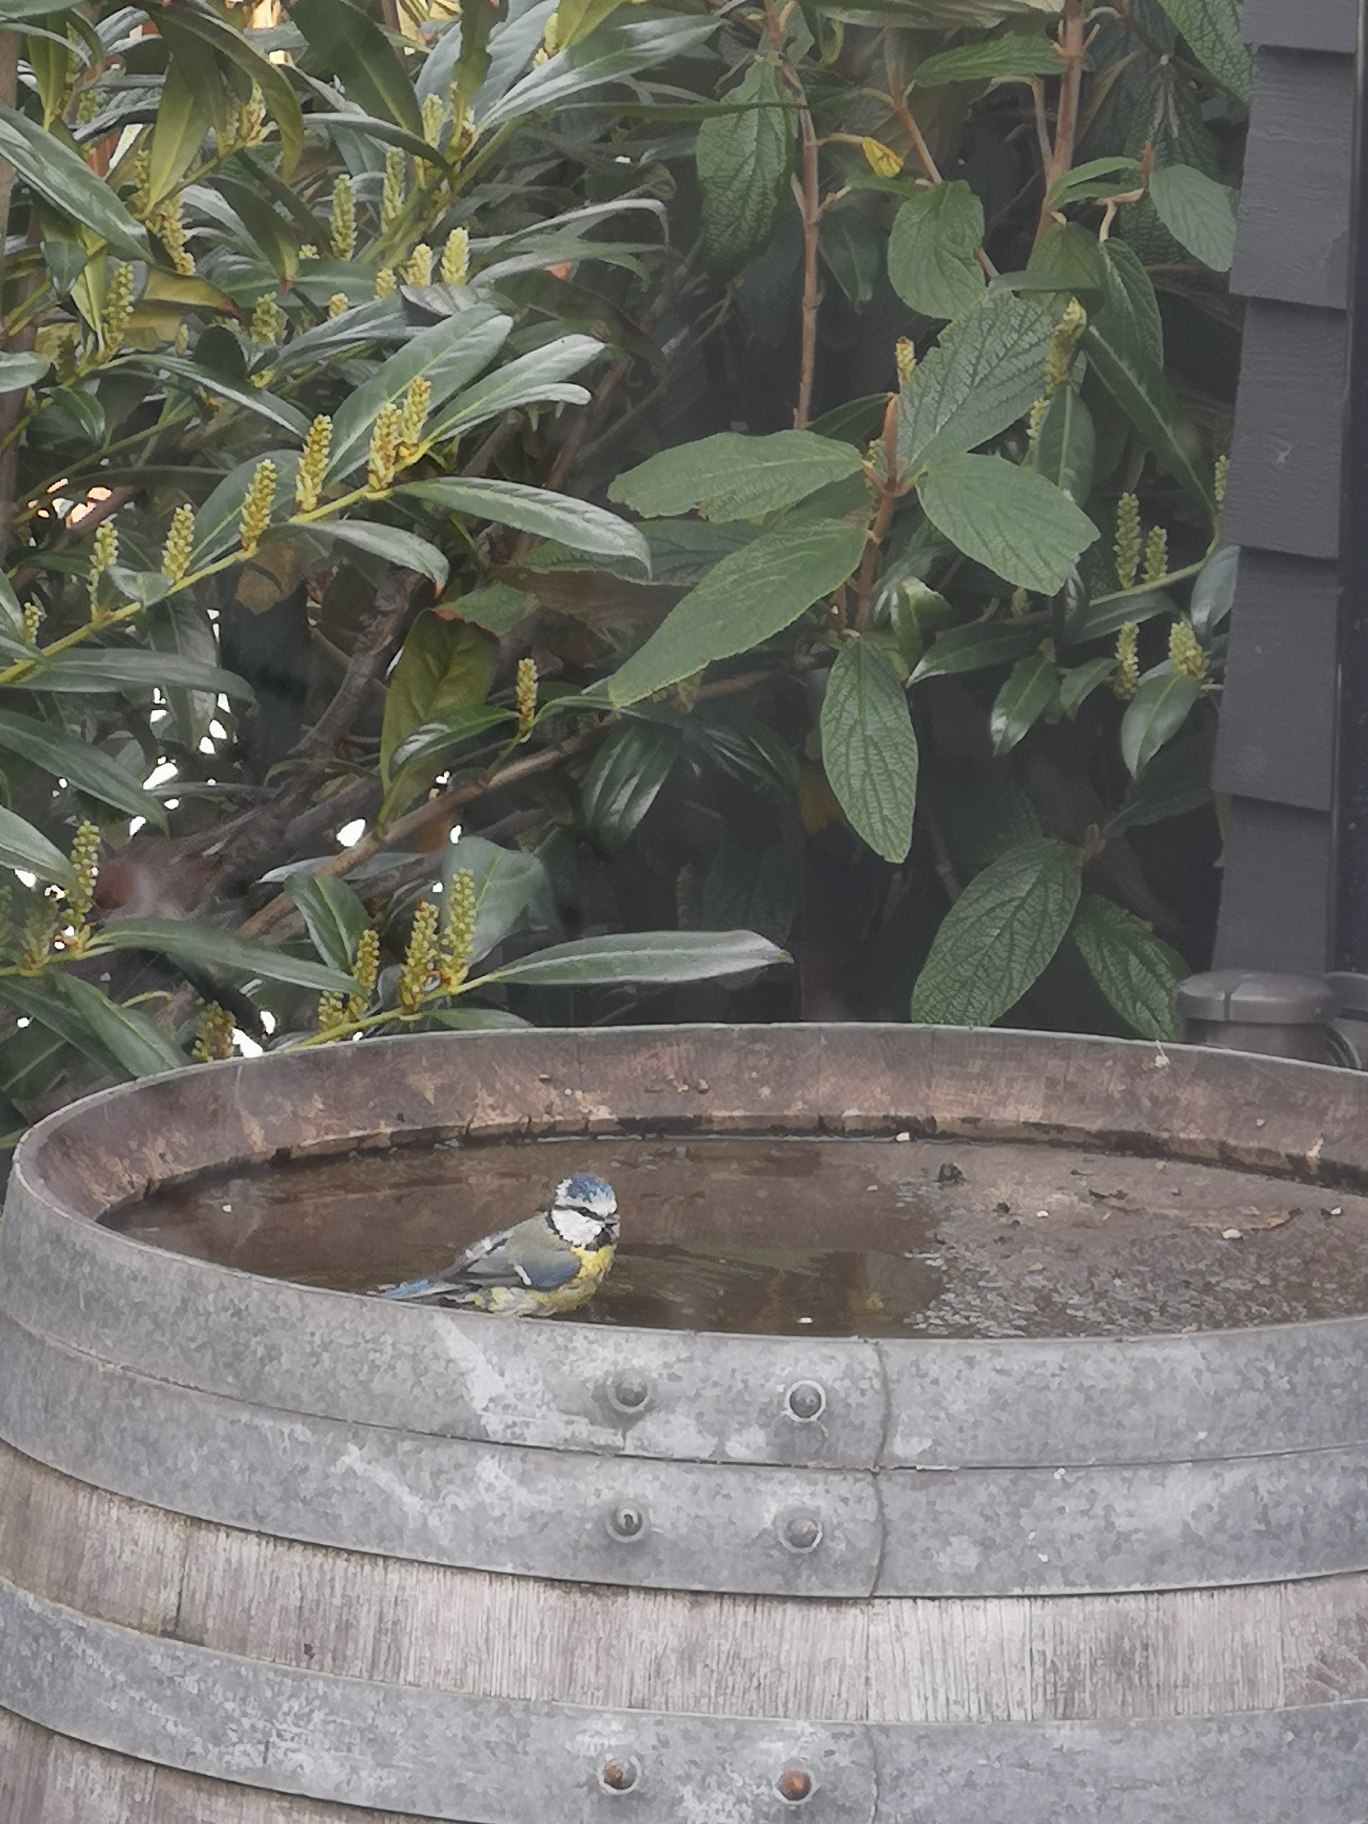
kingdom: Animalia
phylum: Chordata
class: Aves
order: Passeriformes
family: Paridae
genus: Cyanistes
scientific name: Cyanistes caeruleus
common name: Blåmejse
